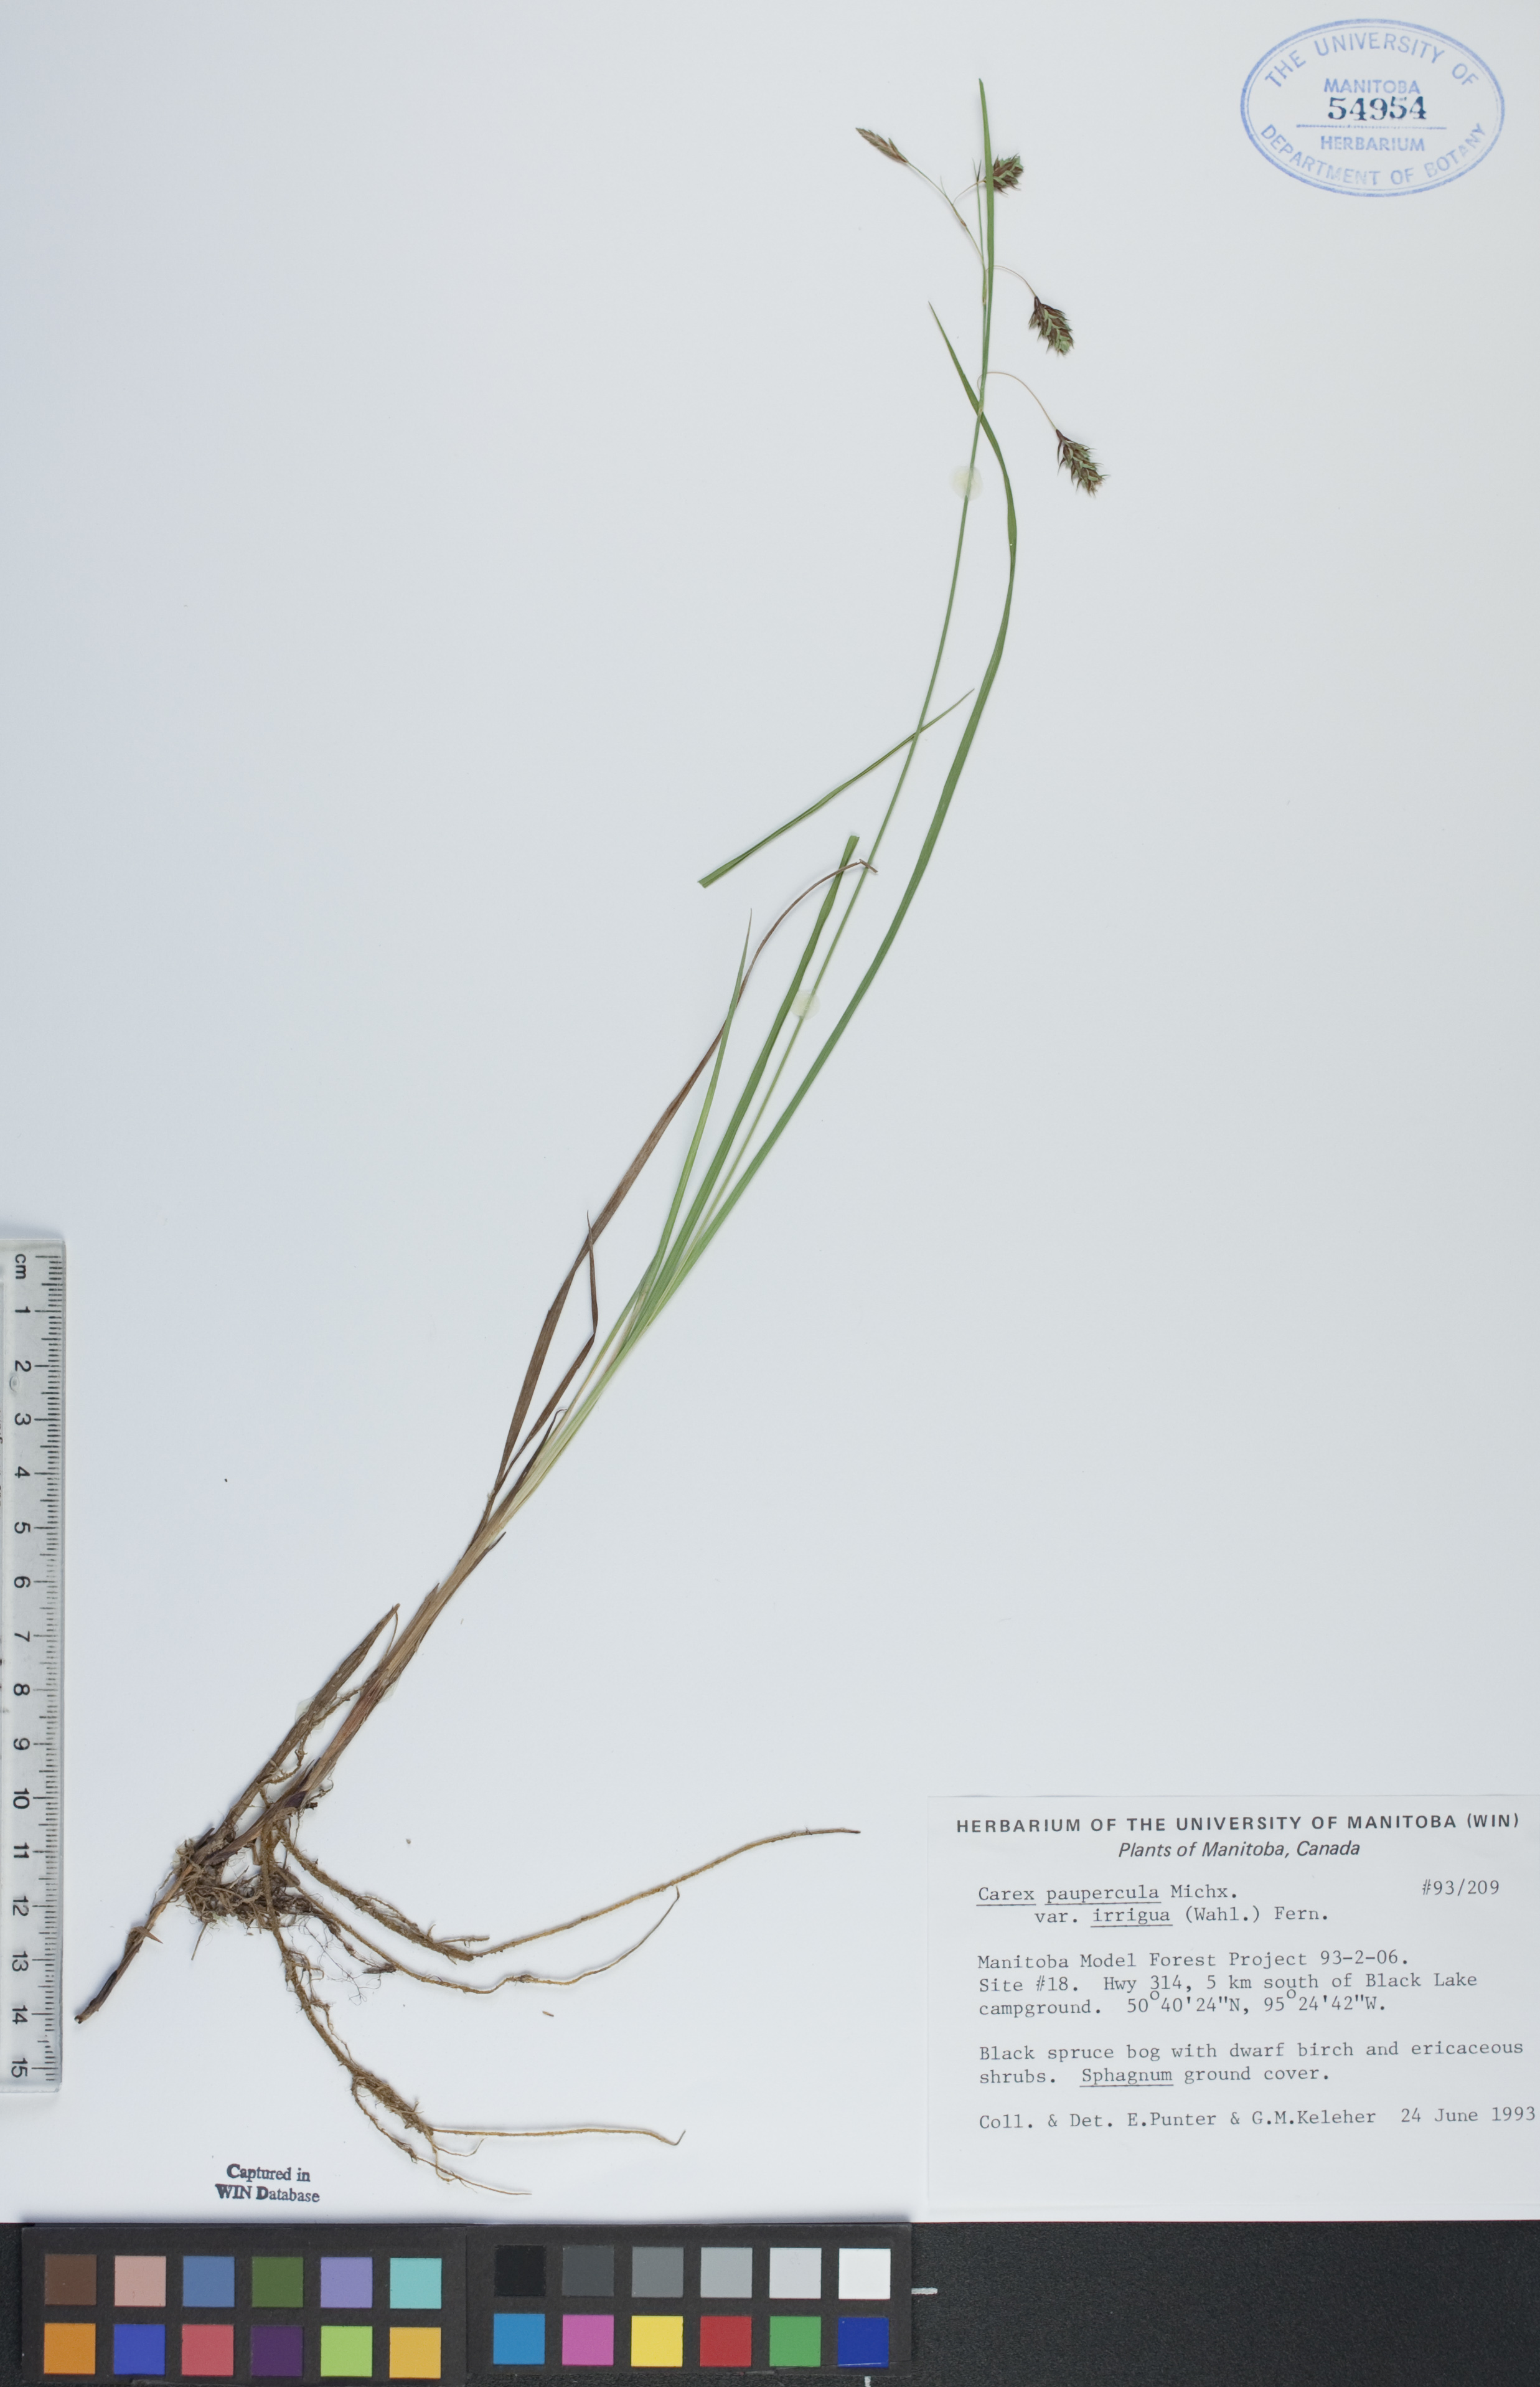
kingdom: Plantae
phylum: Tracheophyta
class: Liliopsida
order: Poales
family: Cyperaceae
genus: Carex
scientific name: Carex magellanica
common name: Bog sedge
